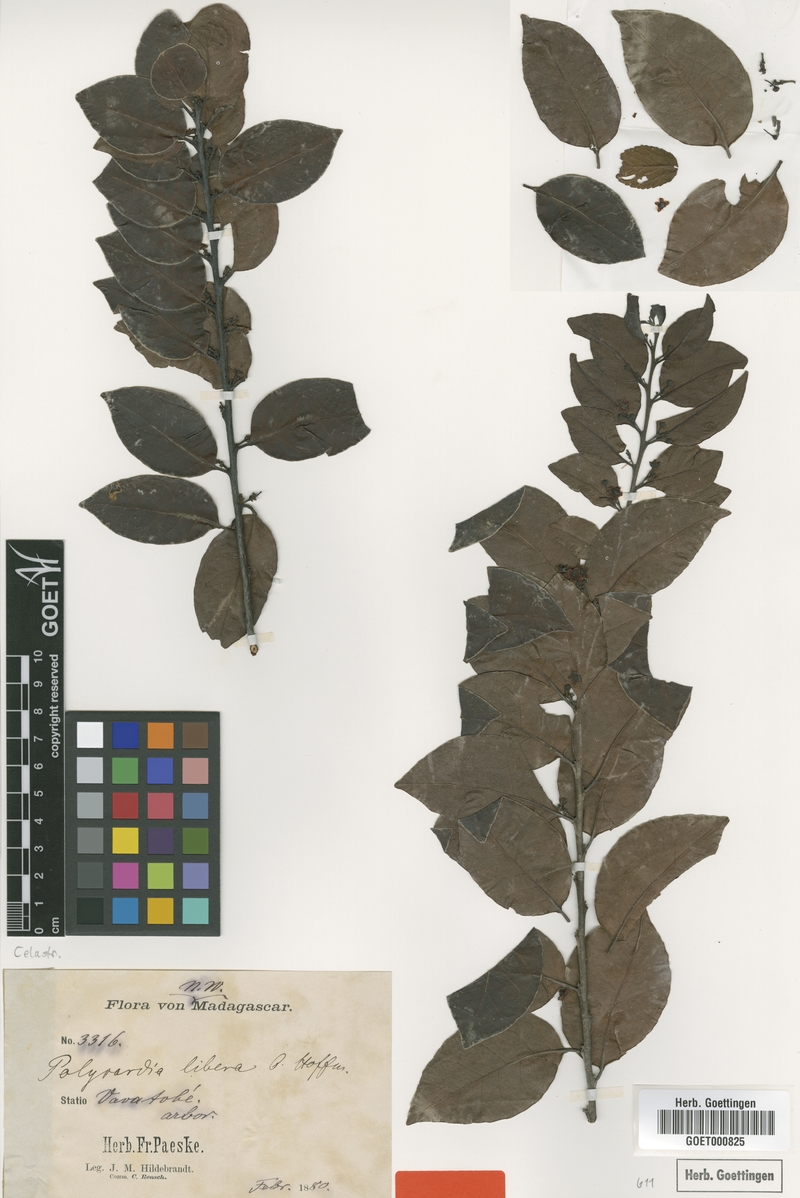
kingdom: Plantae
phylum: Tracheophyta
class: Magnoliopsida
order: Celastrales
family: Celastraceae
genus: Polycardia
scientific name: Polycardia libera
